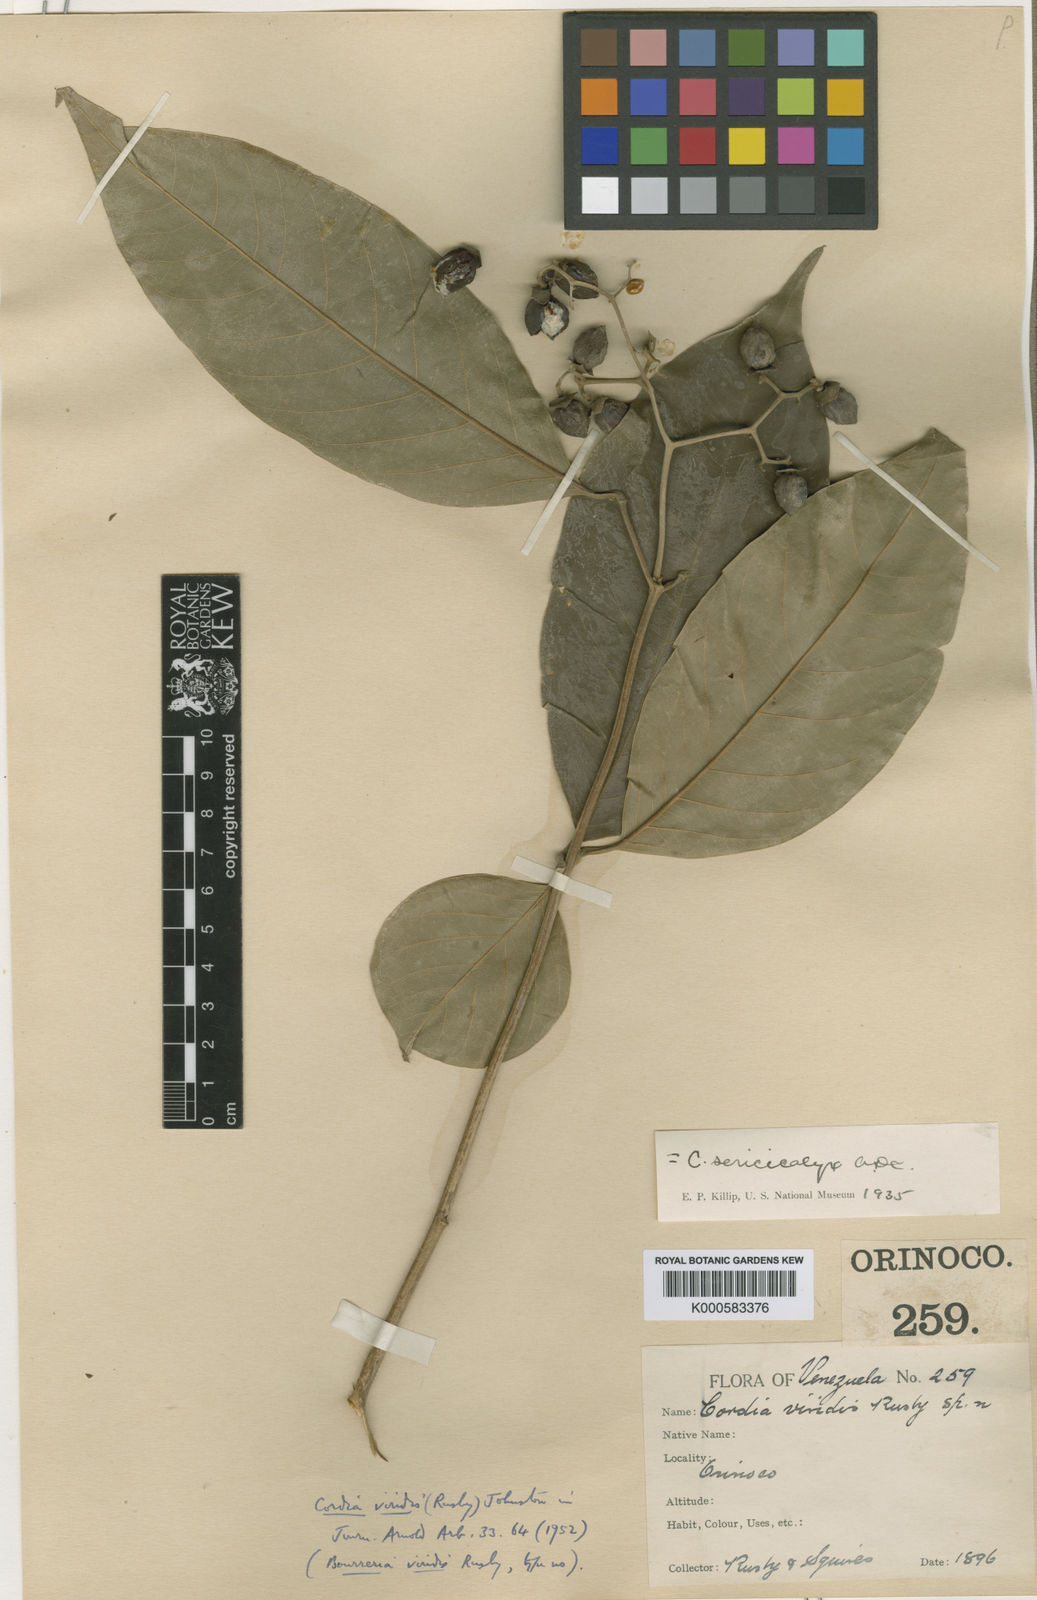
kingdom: Plantae
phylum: Tracheophyta
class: Magnoliopsida
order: Boraginales
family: Cordiaceae
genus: Cordia
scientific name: Cordia sericicalyx
